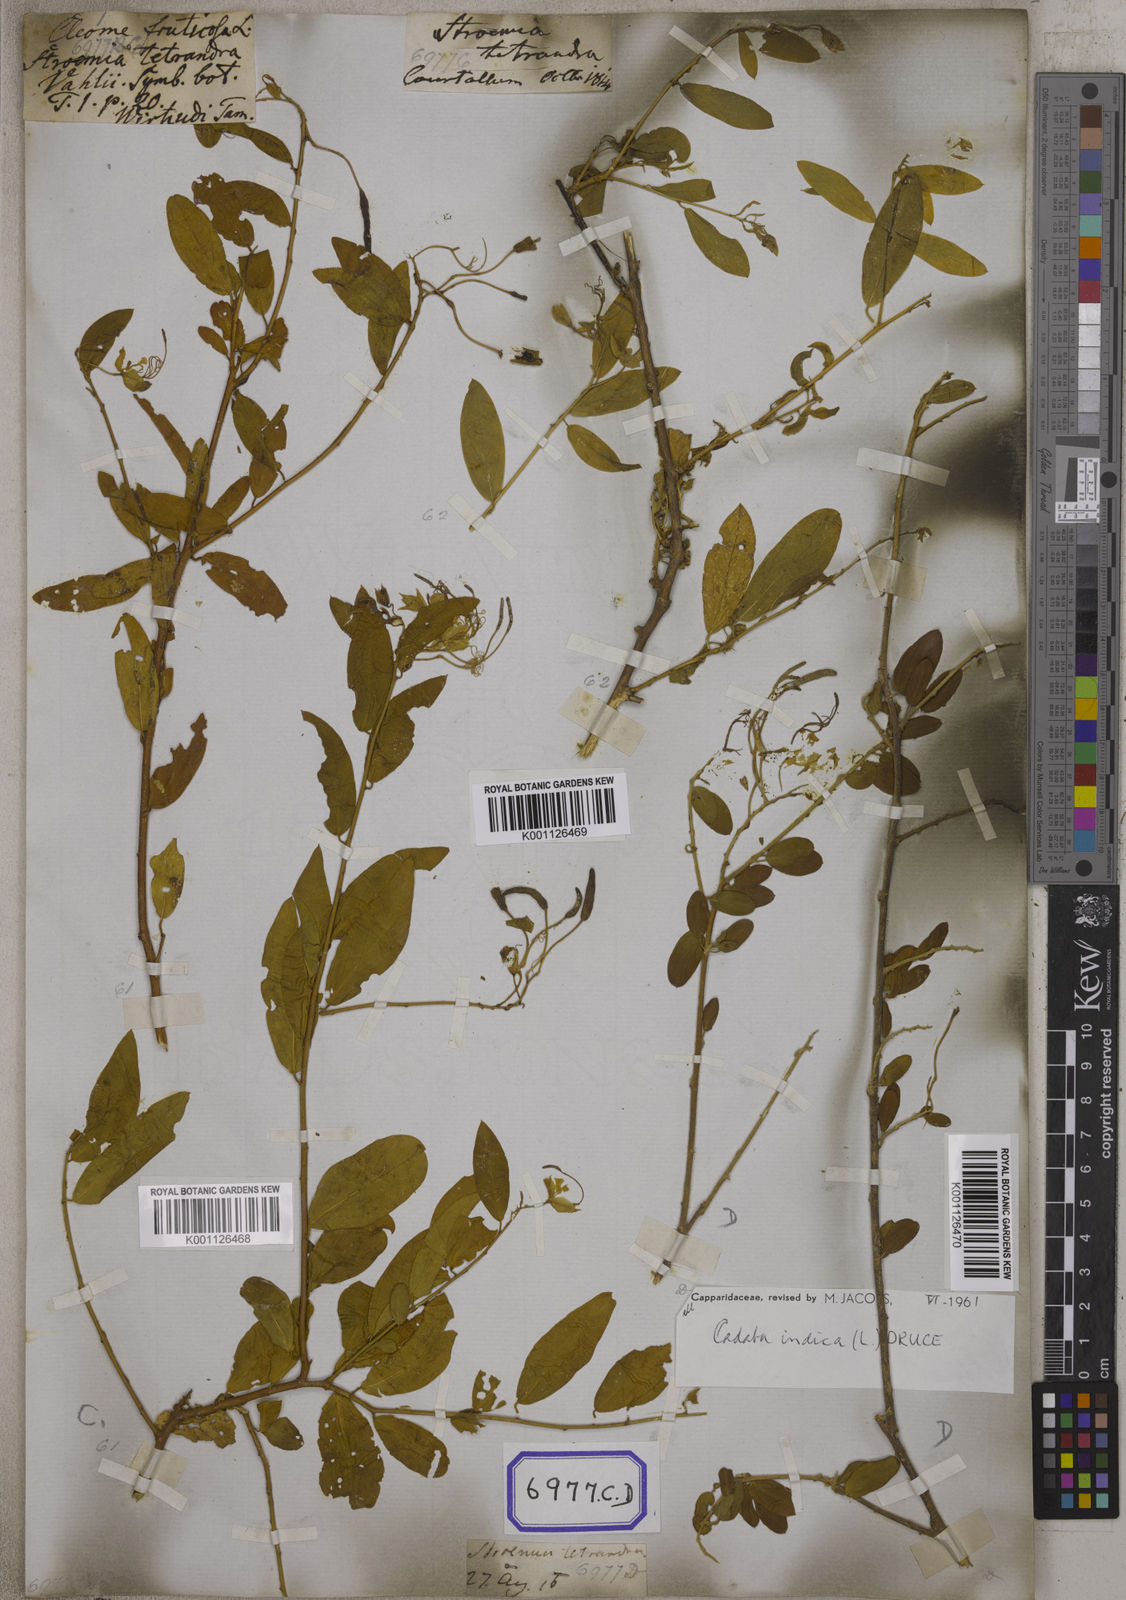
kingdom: Plantae
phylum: Tracheophyta
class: Magnoliopsida
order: Brassicales
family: Capparaceae
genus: Cadaba
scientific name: Cadaba fruticosa
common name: Indian cadaba
